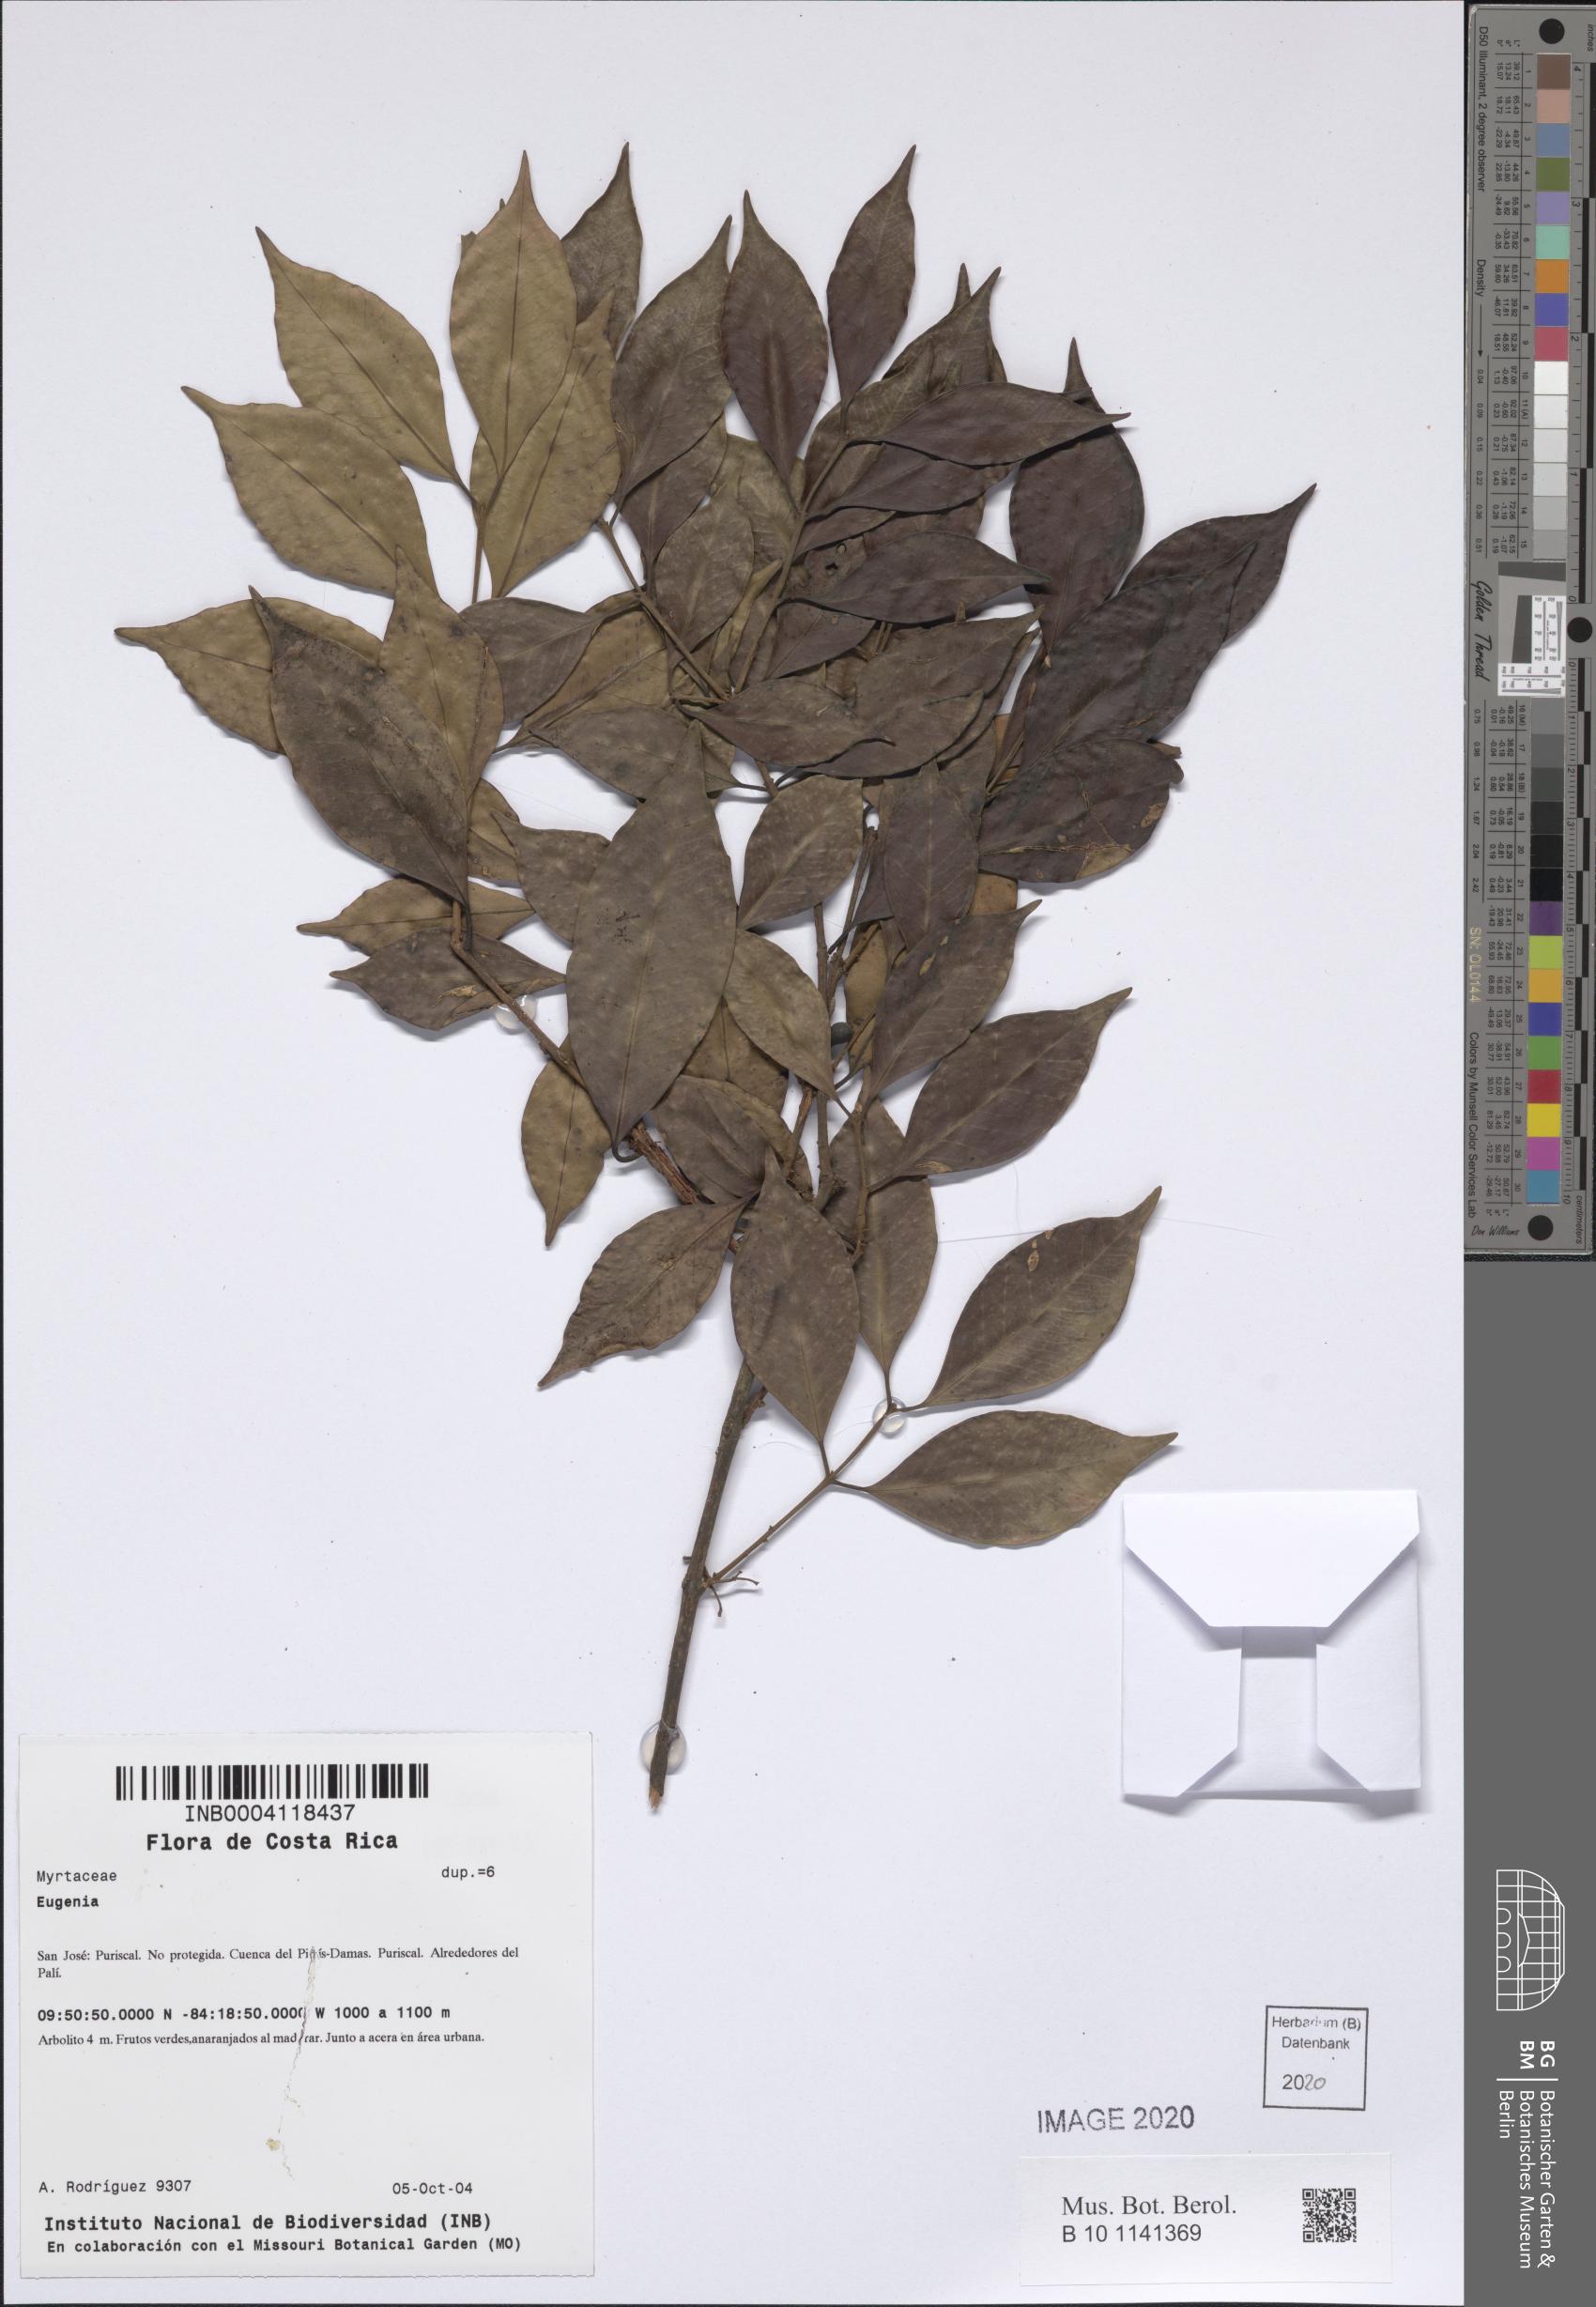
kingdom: Plantae
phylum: Tracheophyta
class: Magnoliopsida
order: Myrtales
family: Myrtaceae
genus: Eugenia
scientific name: Eugenia
